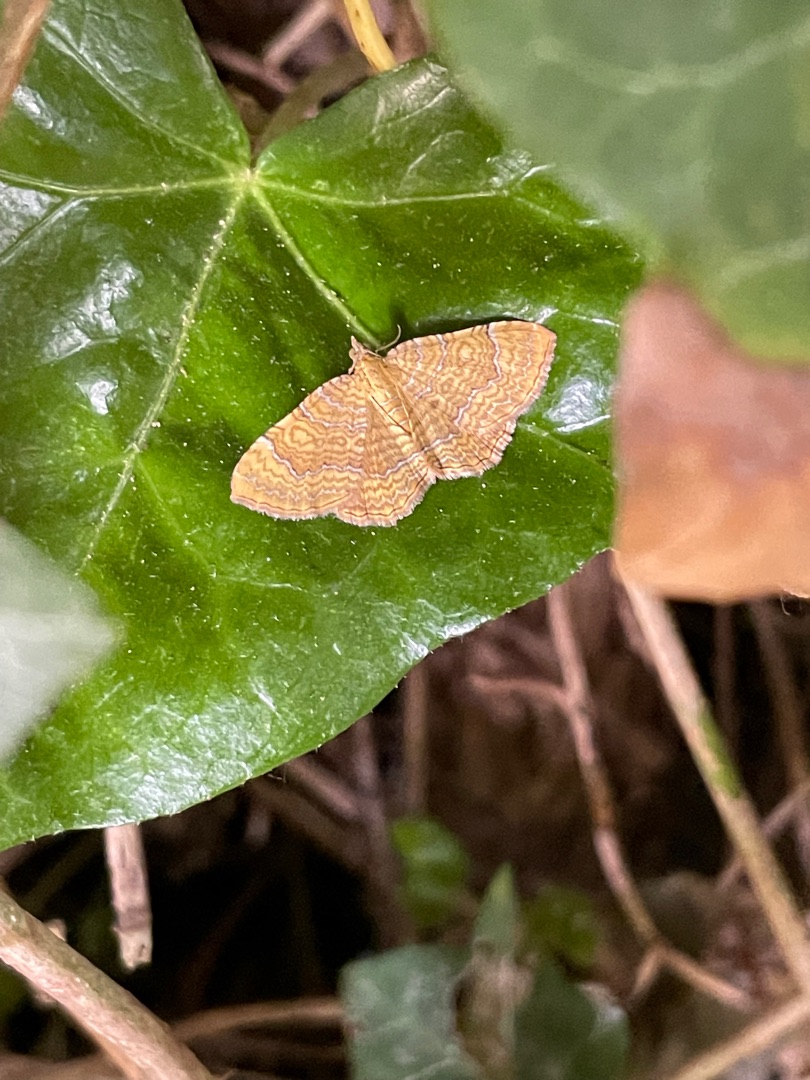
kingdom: Animalia
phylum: Arthropoda
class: Insecta
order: Lepidoptera
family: Geometridae
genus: Camptogramma
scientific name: Camptogramma bilineata
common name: Okkergul bladmåler
